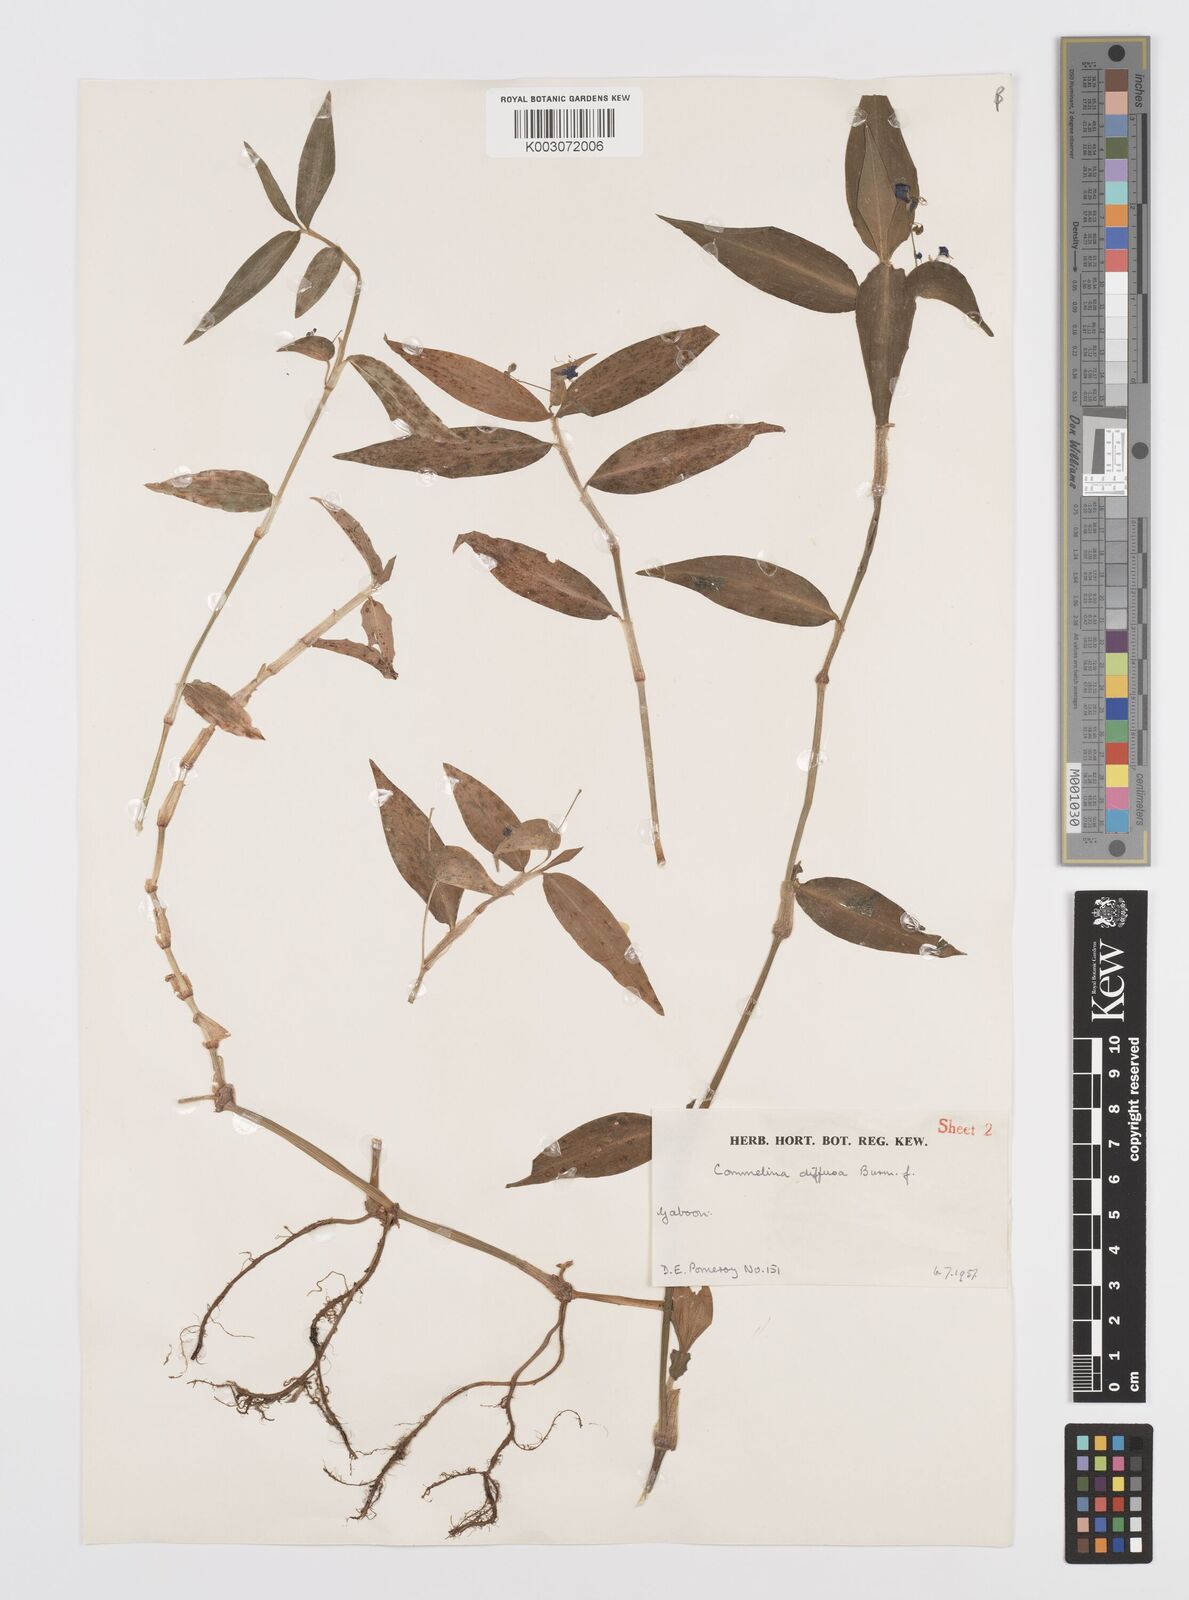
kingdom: Plantae
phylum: Tracheophyta
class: Liliopsida
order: Commelinales
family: Commelinaceae
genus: Commelina
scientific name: Commelina diffusa
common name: Climbing dayflower
